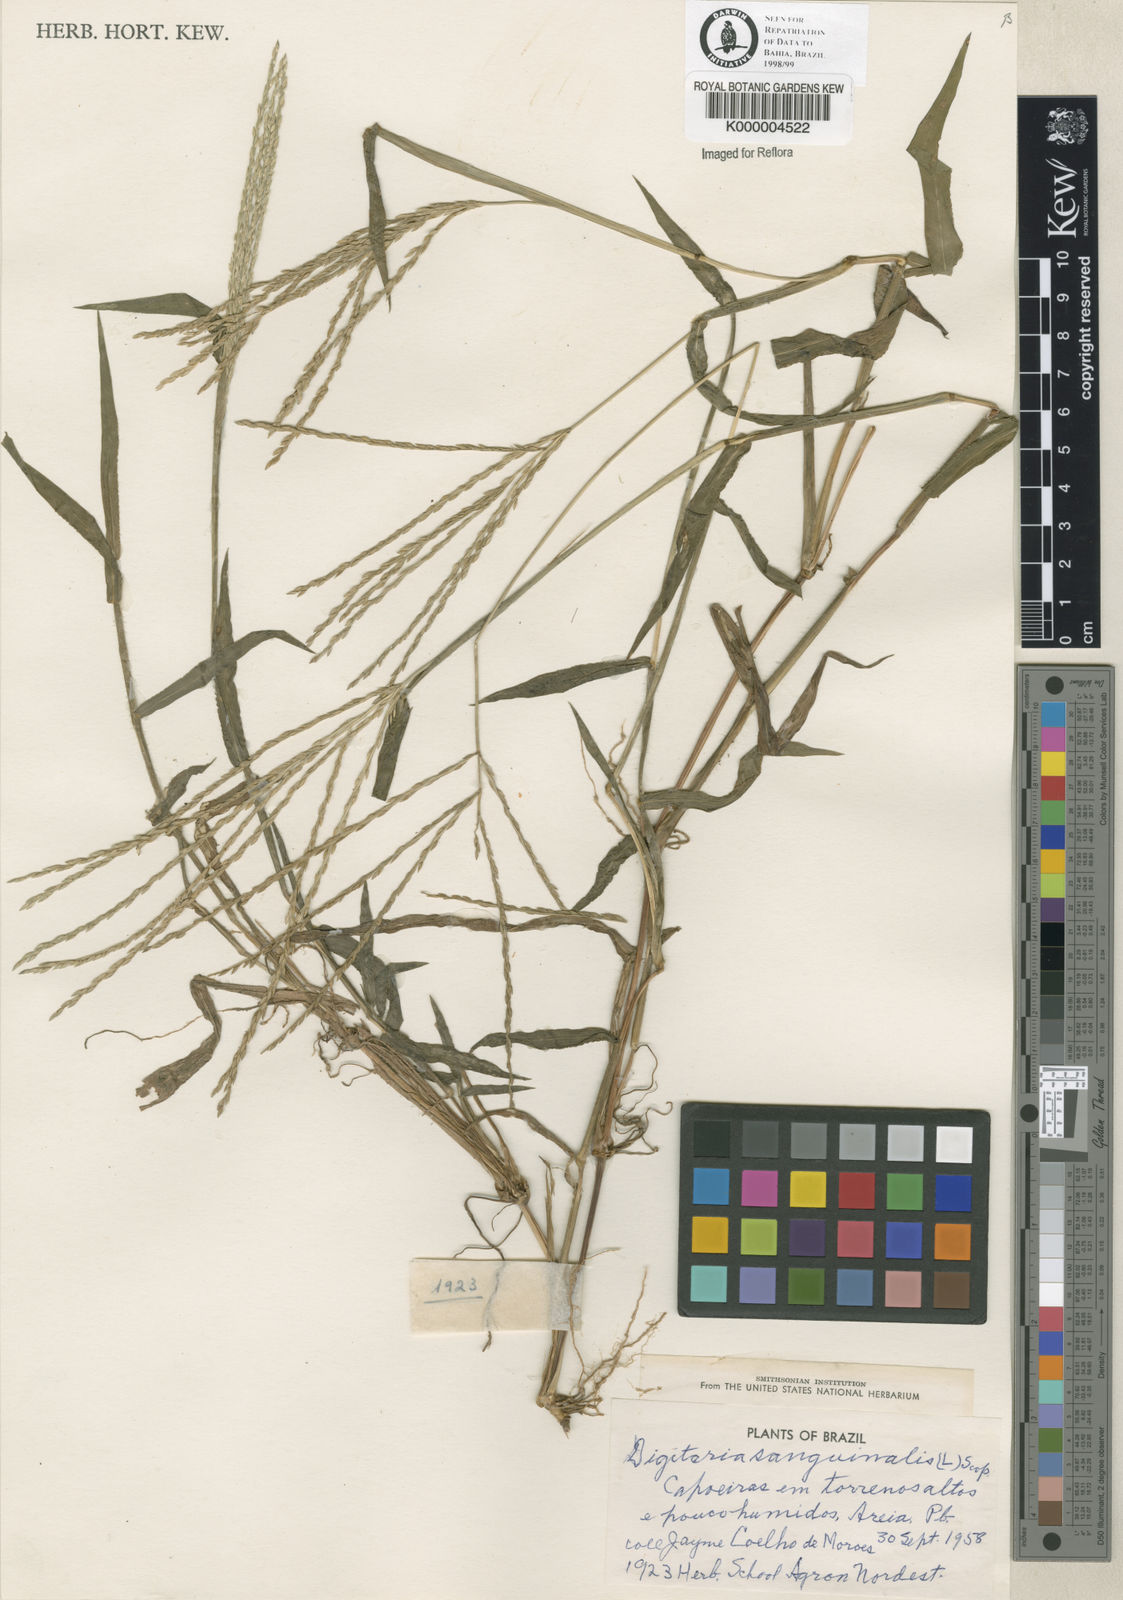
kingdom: Plantae
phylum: Tracheophyta
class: Liliopsida
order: Poales
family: Poaceae
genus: Digitaria
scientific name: Digitaria ciliaris
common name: Tropical finger-grass
